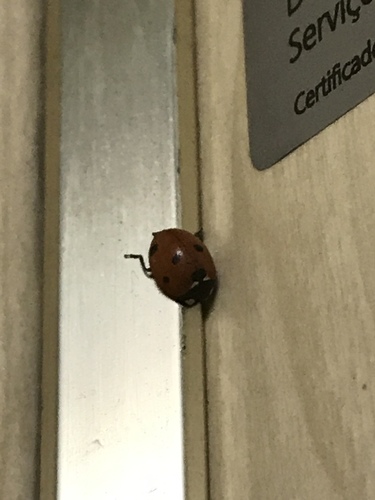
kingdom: Animalia
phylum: Arthropoda
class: Insecta
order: Coleoptera
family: Coccinellidae
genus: Coccinella
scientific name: Coccinella septempunctata
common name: Sevenspotted lady beetle
